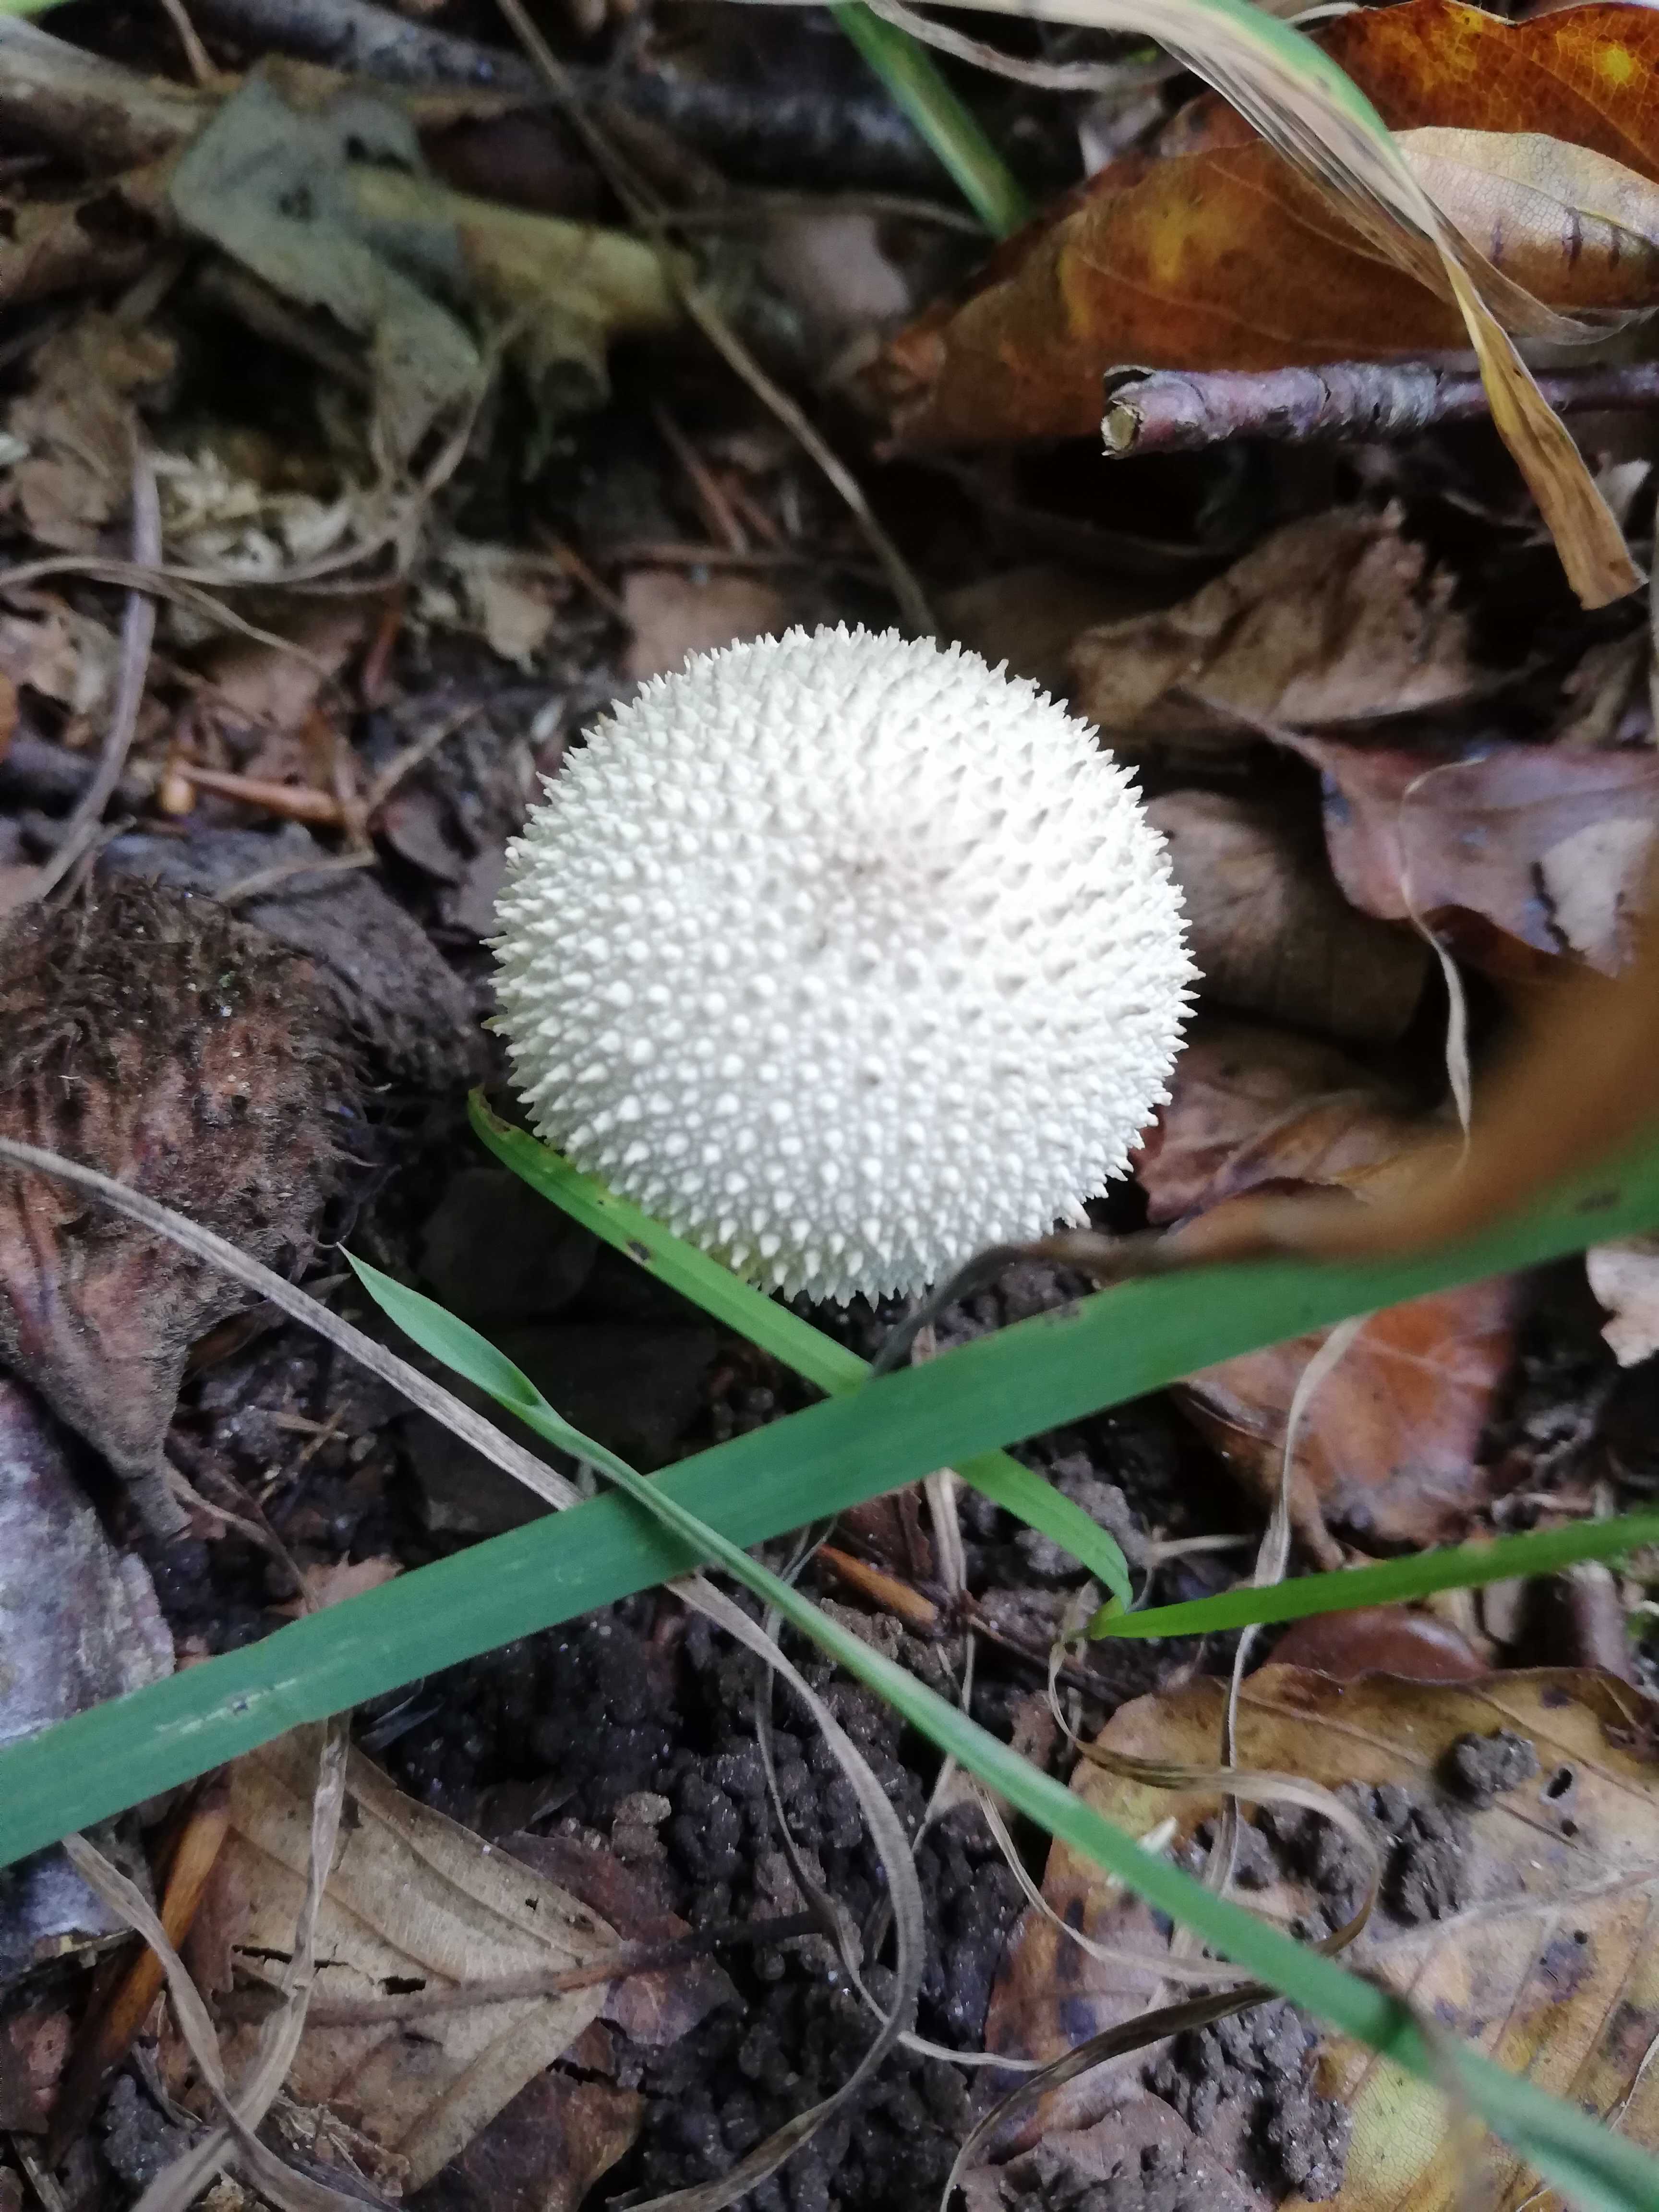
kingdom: Fungi
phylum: Basidiomycota
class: Agaricomycetes
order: Agaricales
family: Lycoperdaceae
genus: Lycoperdon
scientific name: Lycoperdon perlatum
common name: krystal-støvbold
